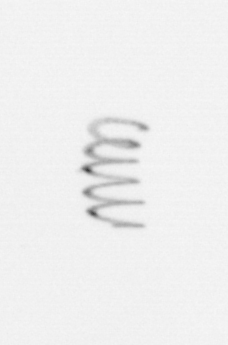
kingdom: Chromista
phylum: Ochrophyta
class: Bacillariophyceae
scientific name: Bacillariophyceae
